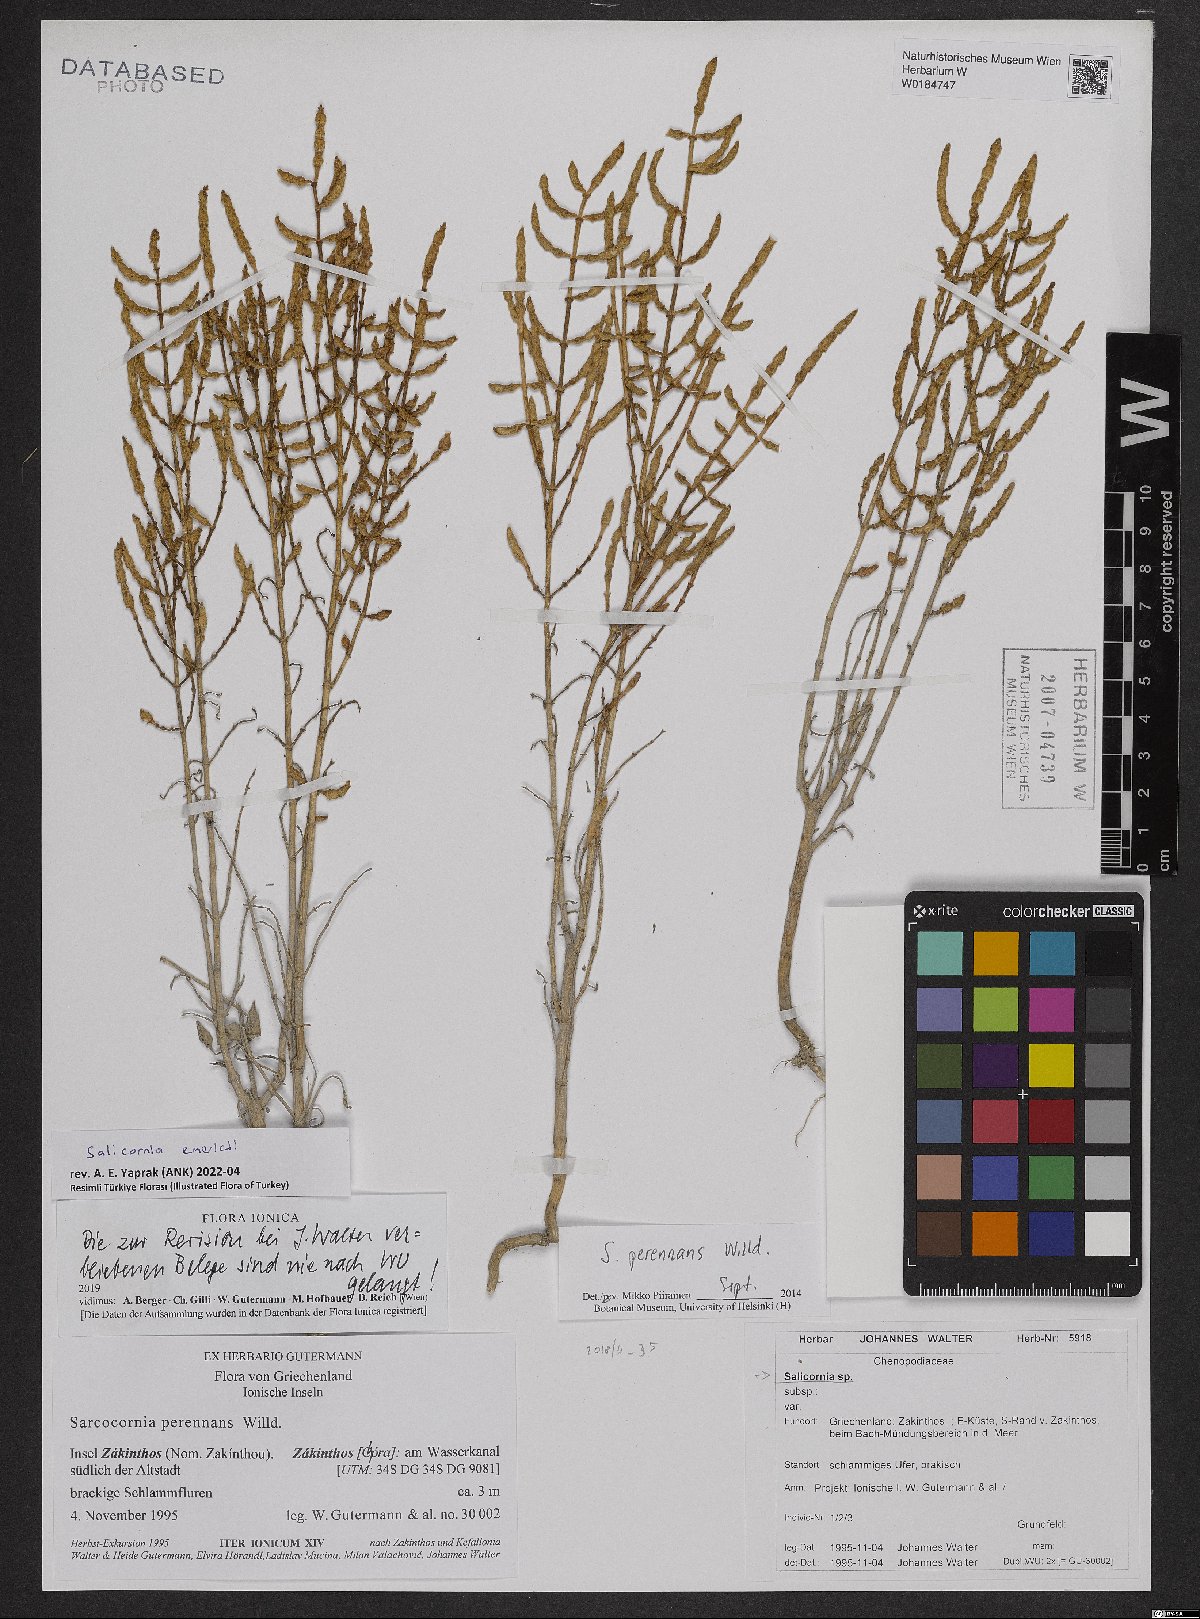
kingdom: Plantae
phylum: Tracheophyta
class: Magnoliopsida
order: Caryophyllales
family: Amaranthaceae
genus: Salicornia
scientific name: Salicornia procumbens
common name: Long-spiked glasswort
